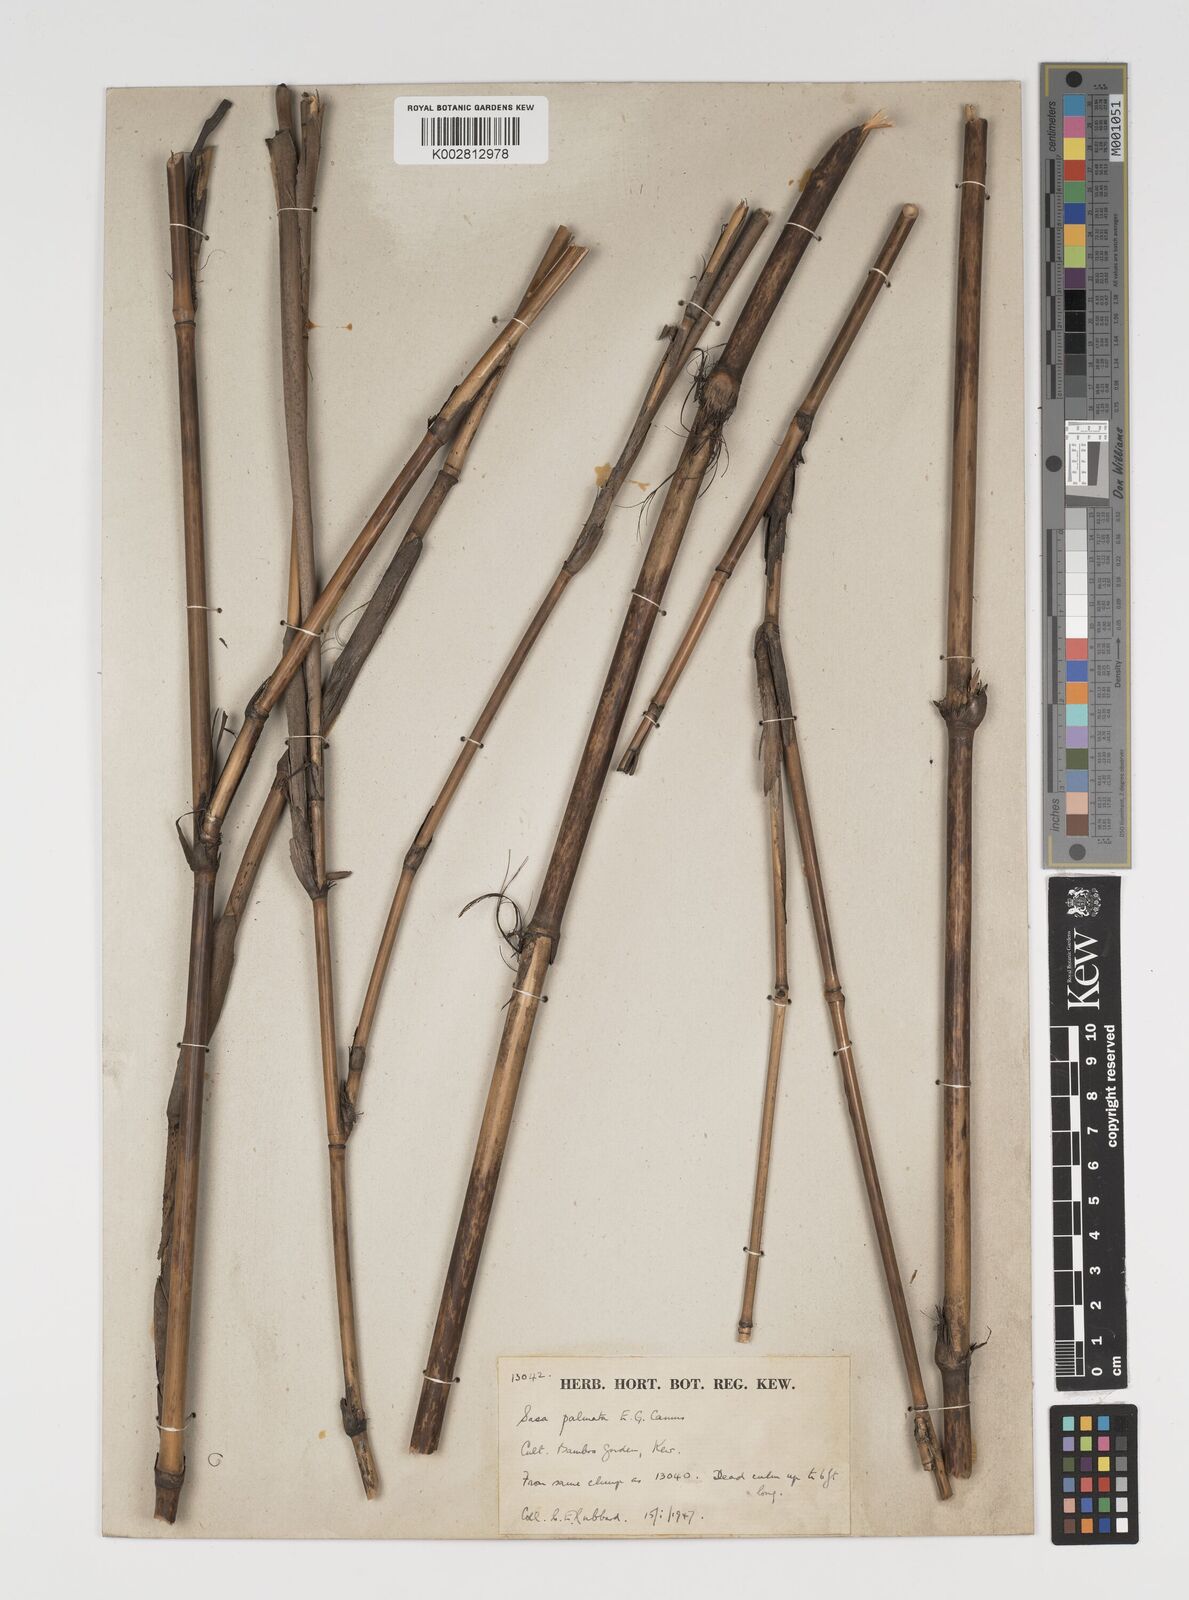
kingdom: Plantae
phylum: Tracheophyta
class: Liliopsida
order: Poales
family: Poaceae
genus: Sasa
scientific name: Sasa palmata
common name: Broad-leaved bamboo
